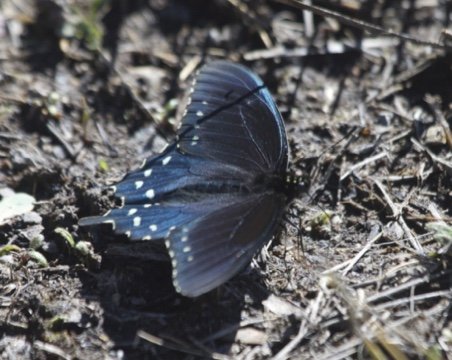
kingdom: Animalia
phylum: Arthropoda
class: Insecta
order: Lepidoptera
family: Papilionidae
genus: Battus
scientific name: Battus philenor
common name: Pipevine Swallowtail
